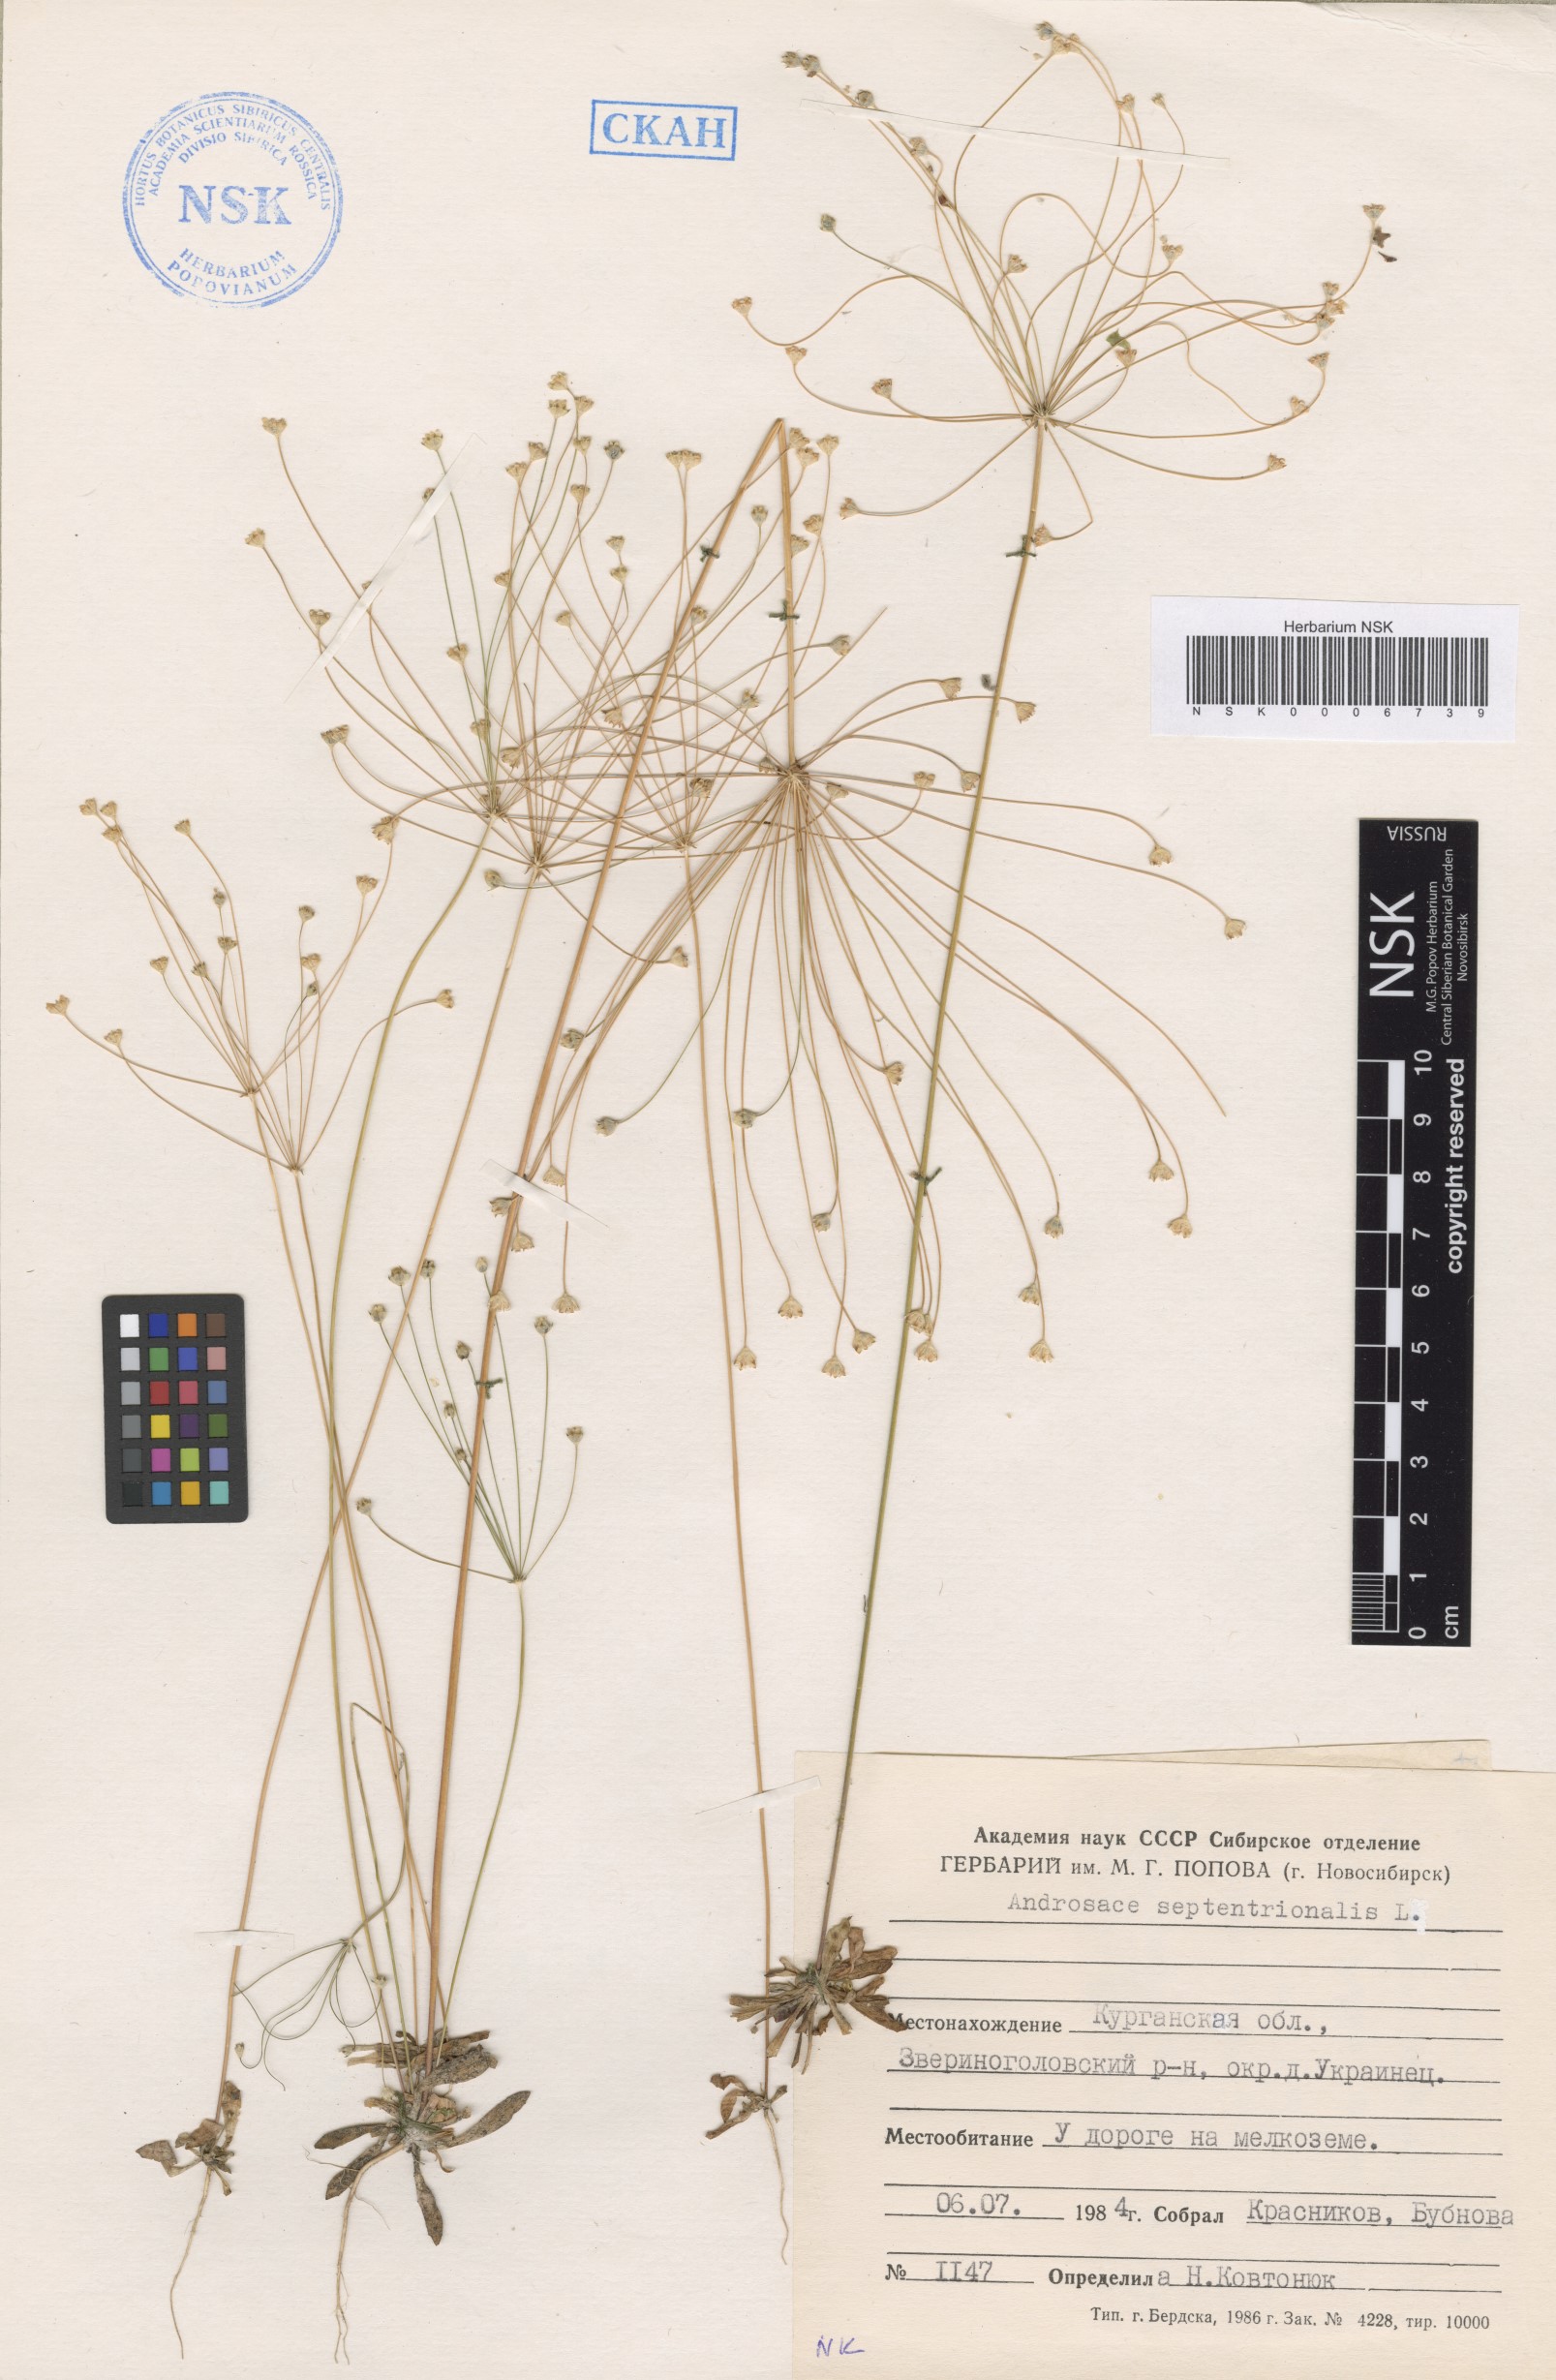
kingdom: Plantae
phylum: Tracheophyta
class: Magnoliopsida
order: Ericales
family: Primulaceae
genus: Androsace
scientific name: Androsace septentrionalis
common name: Hairy northern fairy-candelabra
